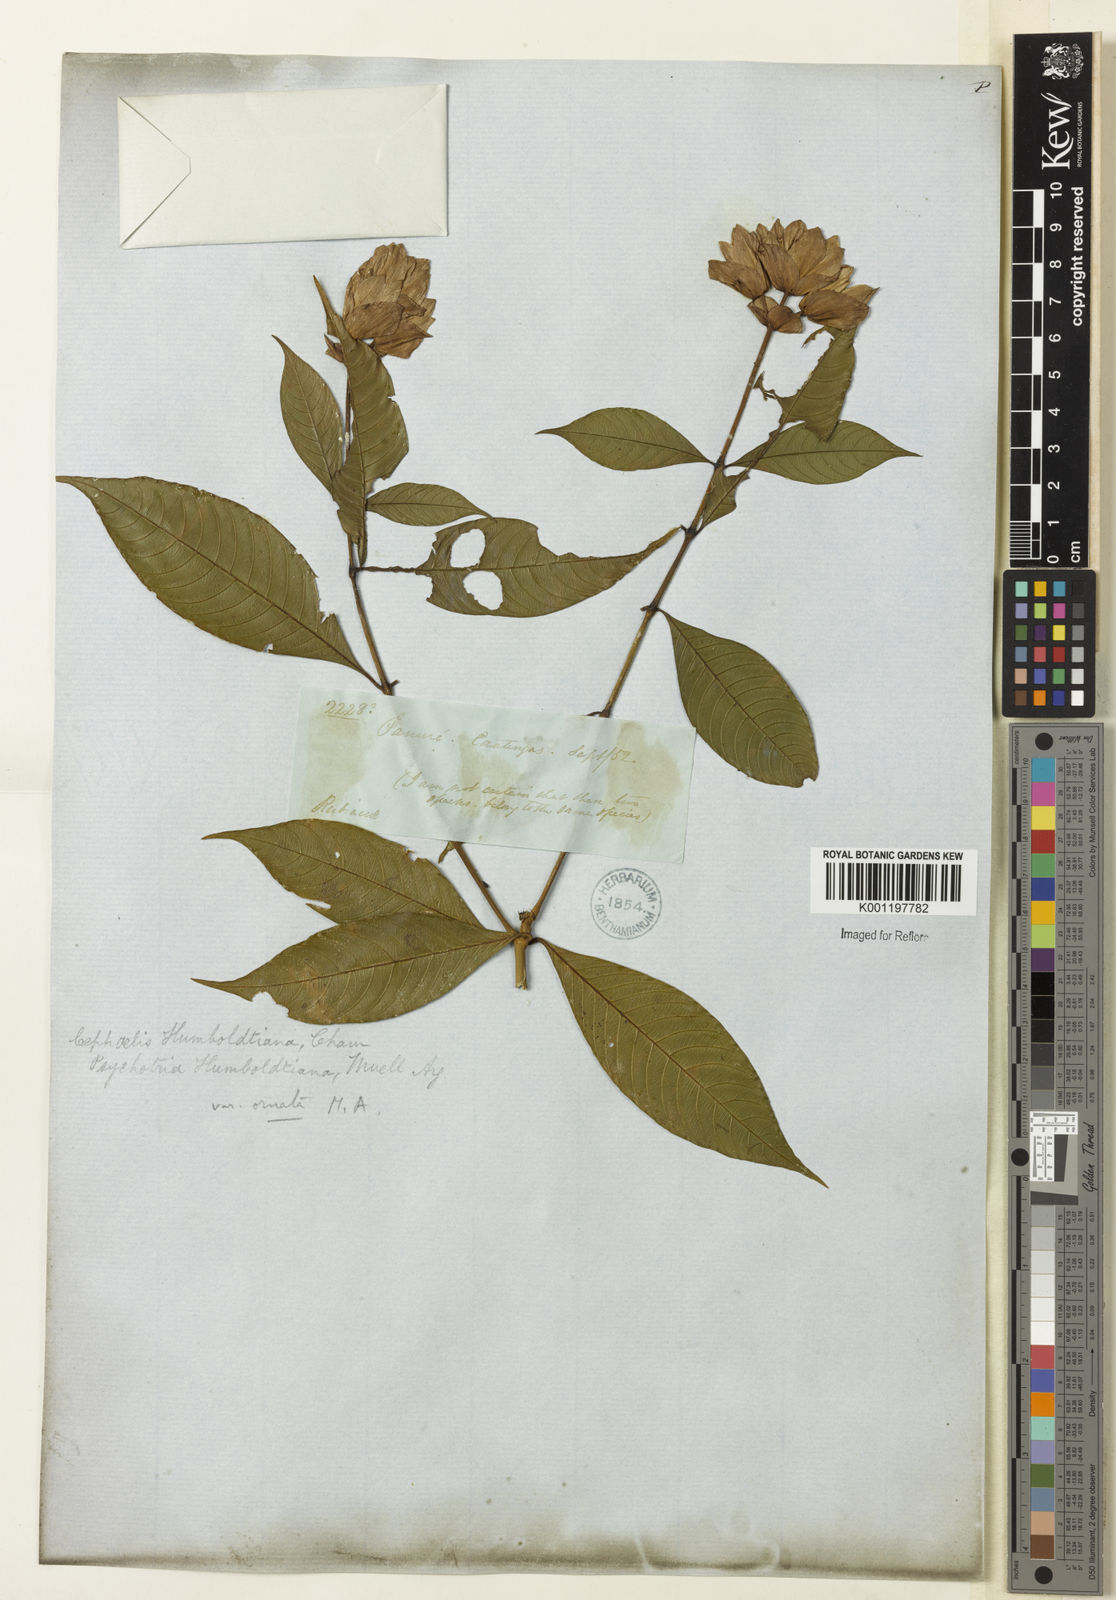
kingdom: Plantae
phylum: Tracheophyta
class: Magnoliopsida
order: Gentianales
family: Rubiaceae
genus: Psychotria
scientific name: Psychotria
